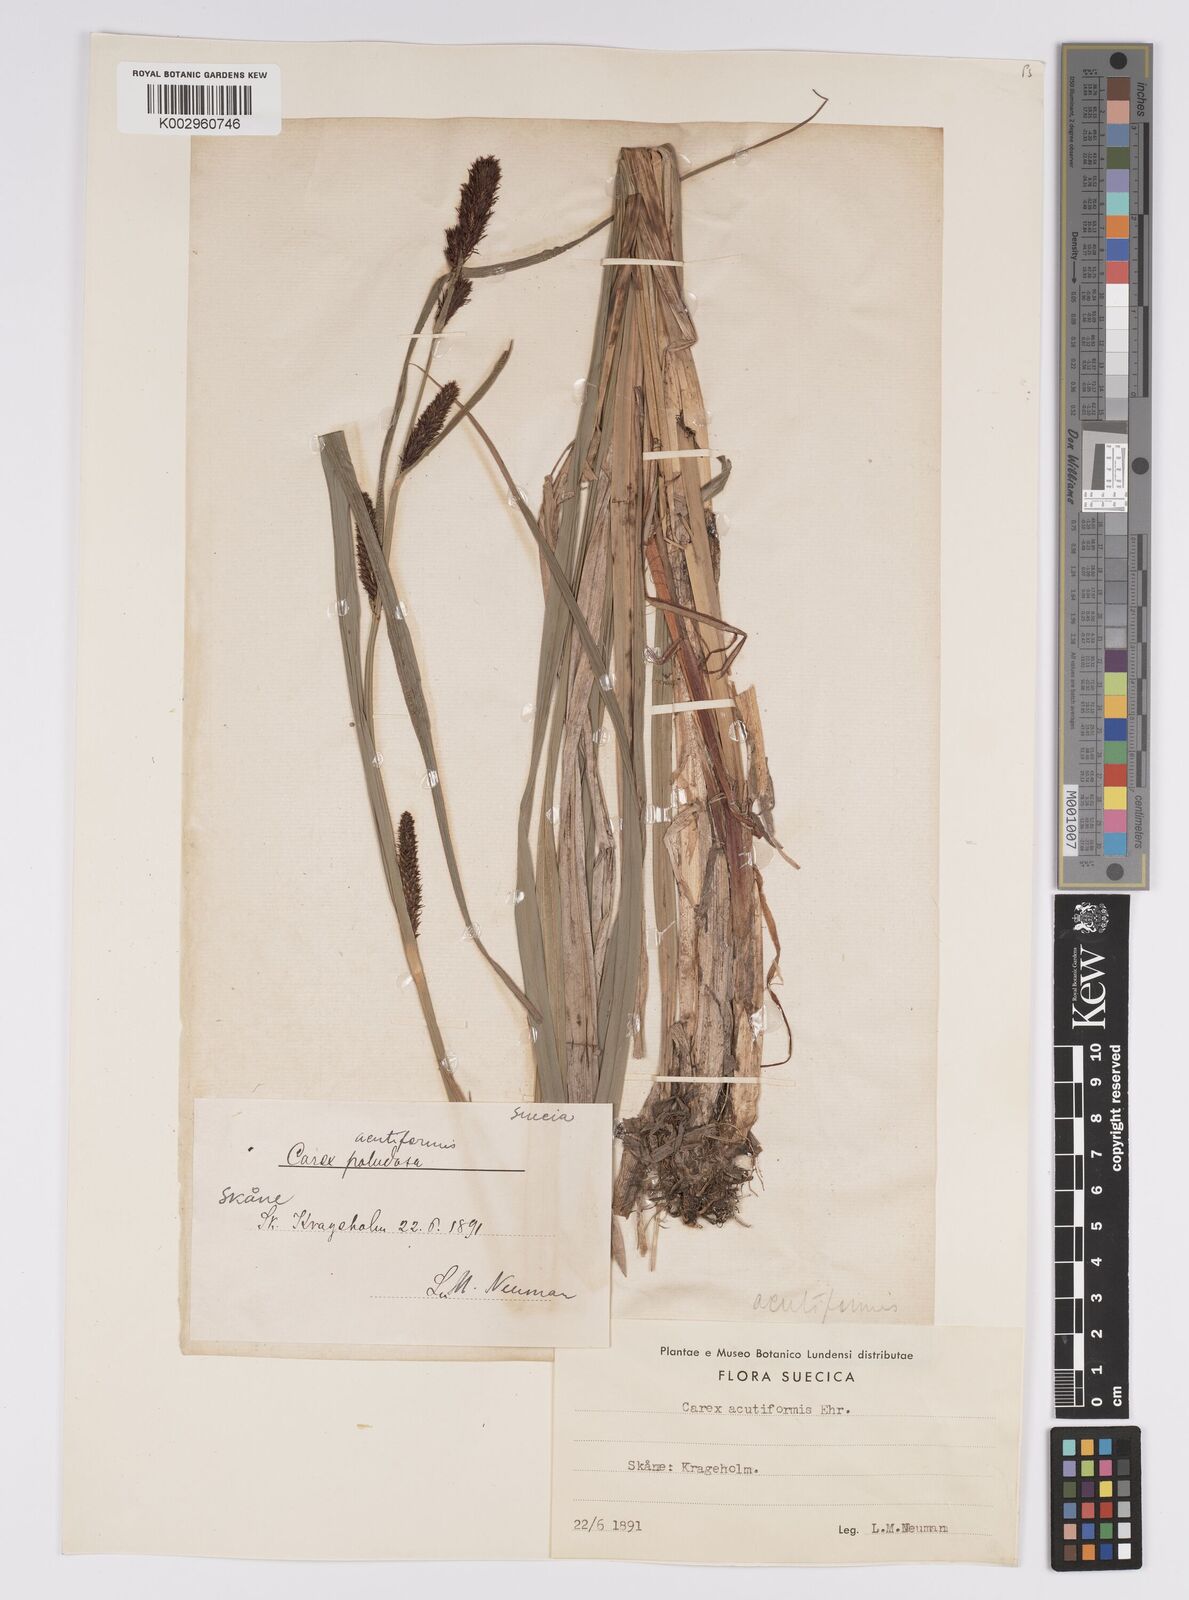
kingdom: Plantae
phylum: Tracheophyta
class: Liliopsida
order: Poales
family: Cyperaceae
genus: Carex
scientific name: Carex acutiformis
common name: Lesser pond-sedge
